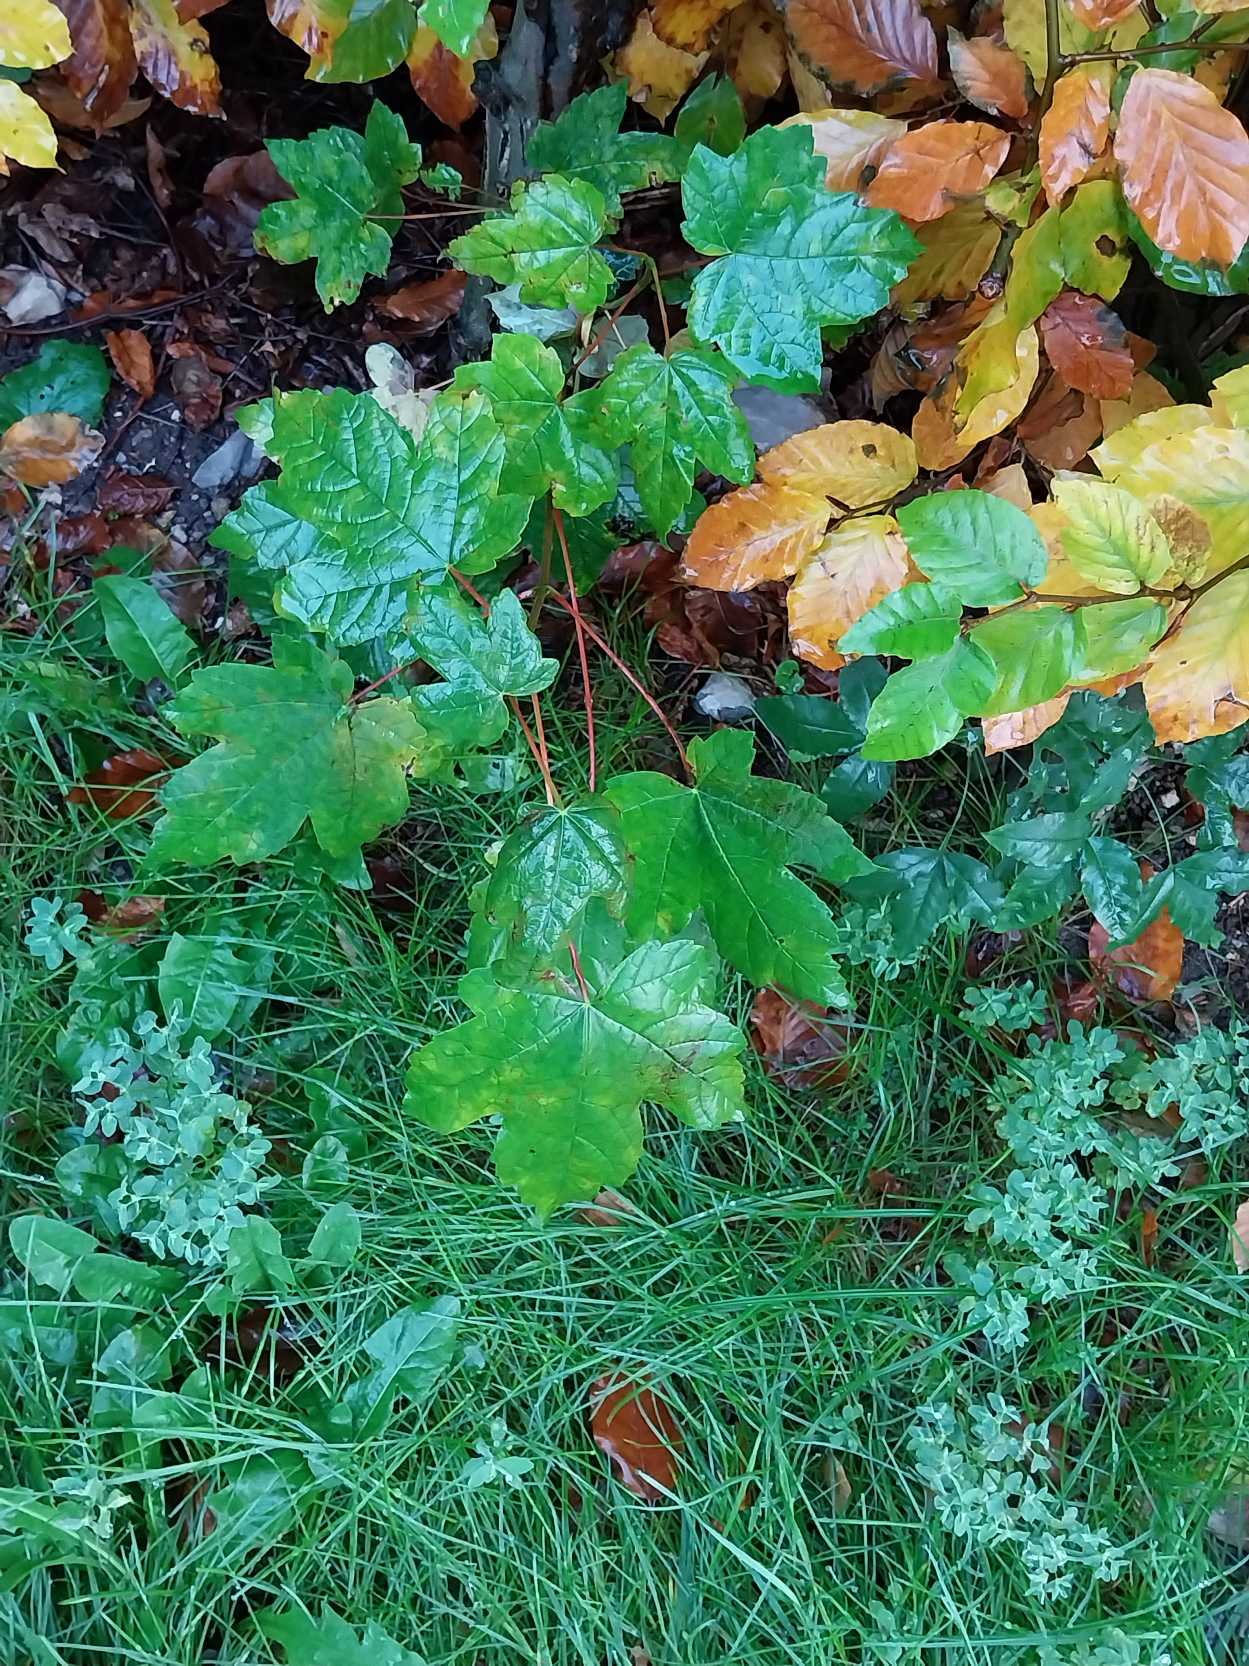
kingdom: Plantae
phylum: Tracheophyta
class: Magnoliopsida
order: Sapindales
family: Sapindaceae
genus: Acer
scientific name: Acer pseudoplatanus
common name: Ahorn
